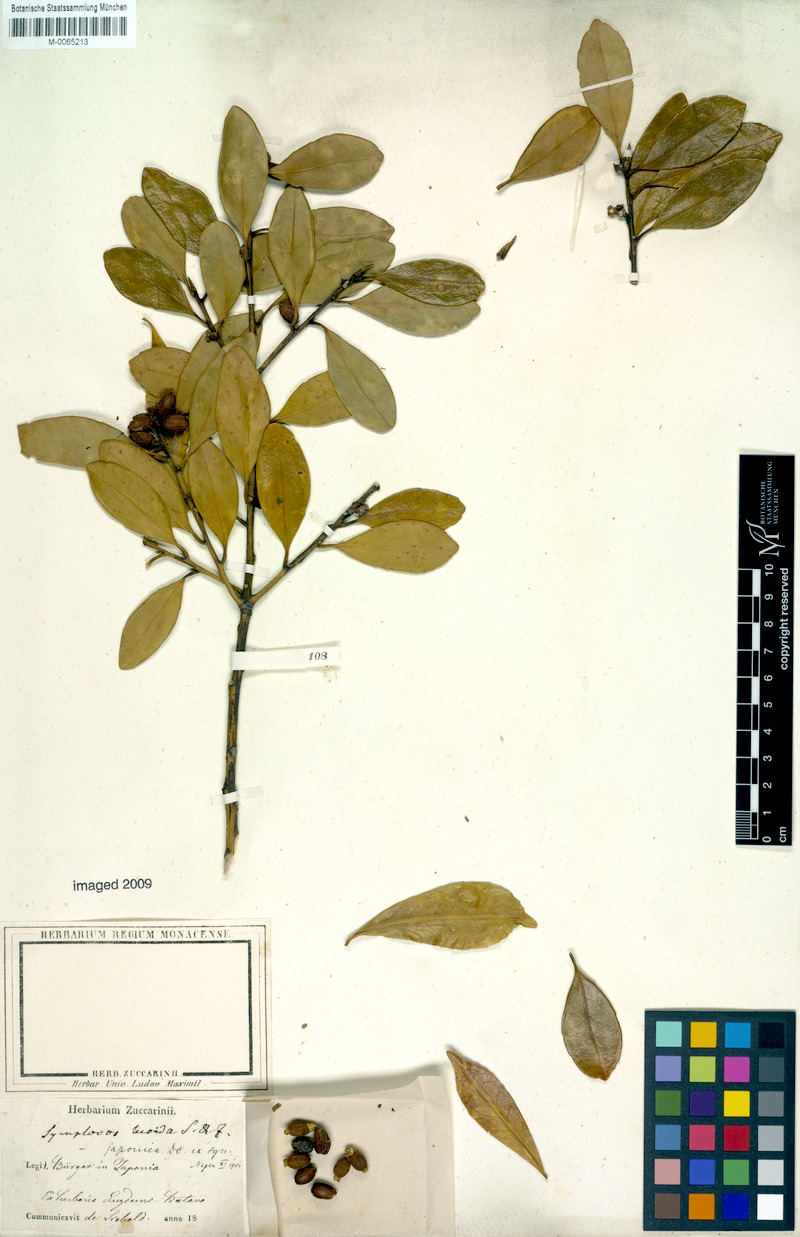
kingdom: Plantae
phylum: Tracheophyta
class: Magnoliopsida
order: Rosales
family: Rosaceae
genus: Pourthiaea
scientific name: Pourthiaea villosa
